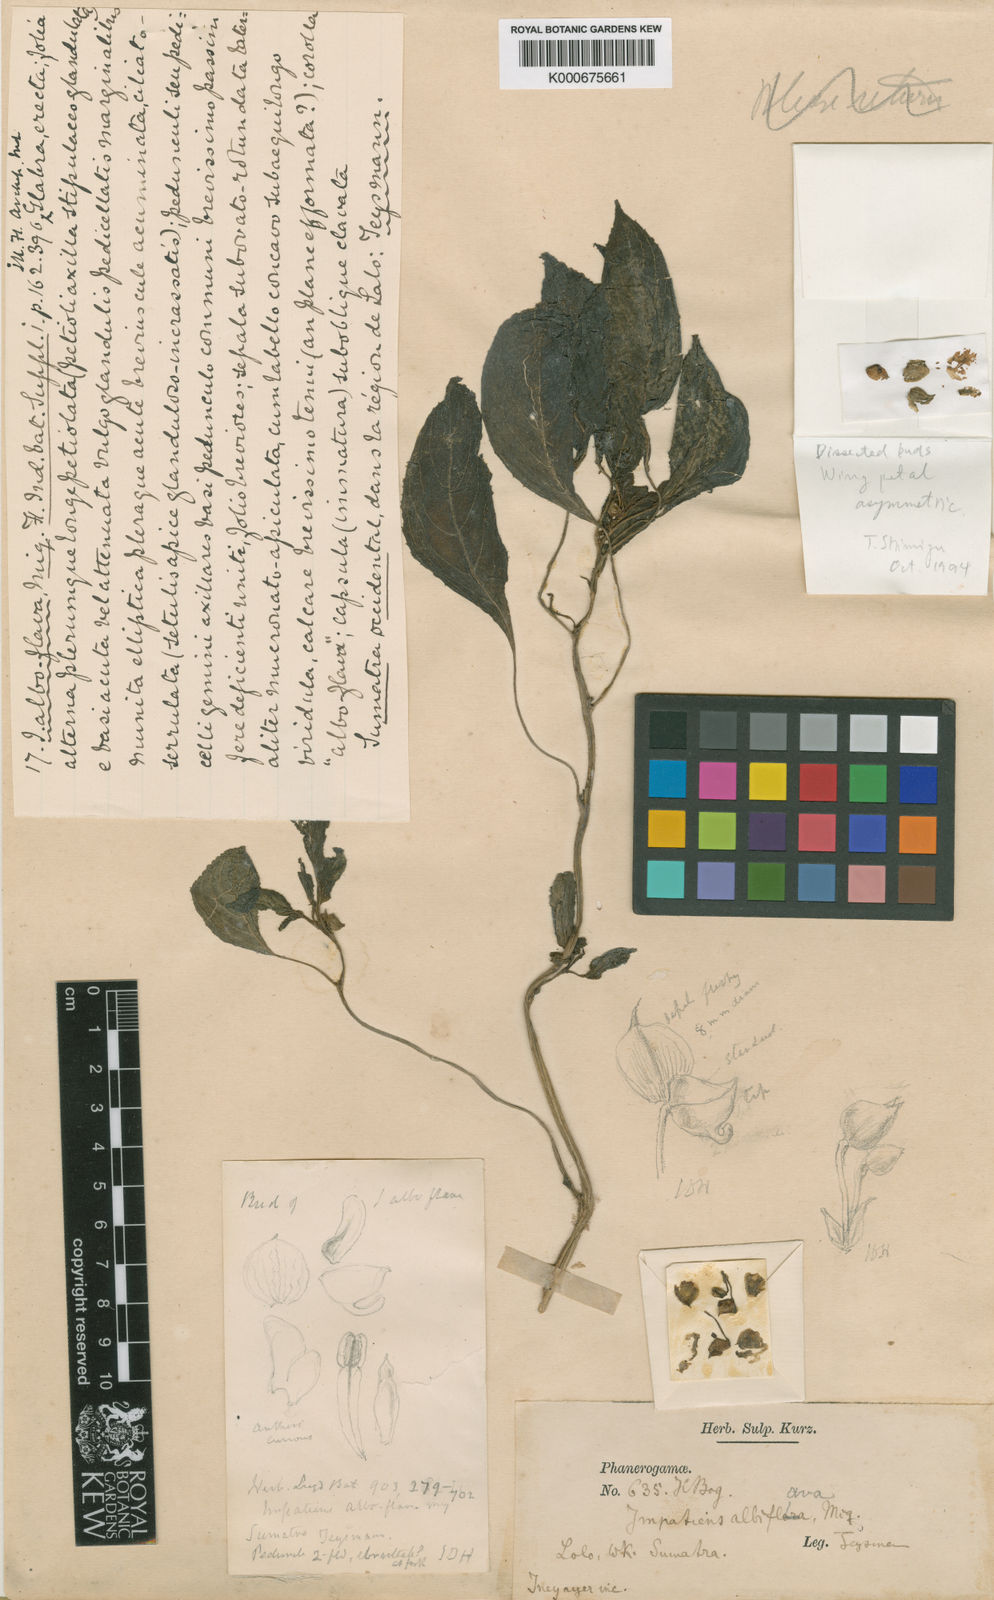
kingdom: Plantae
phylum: Tracheophyta
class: Magnoliopsida
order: Ericales
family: Balsaminaceae
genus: Impatiens
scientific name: Impatiens alboflava
